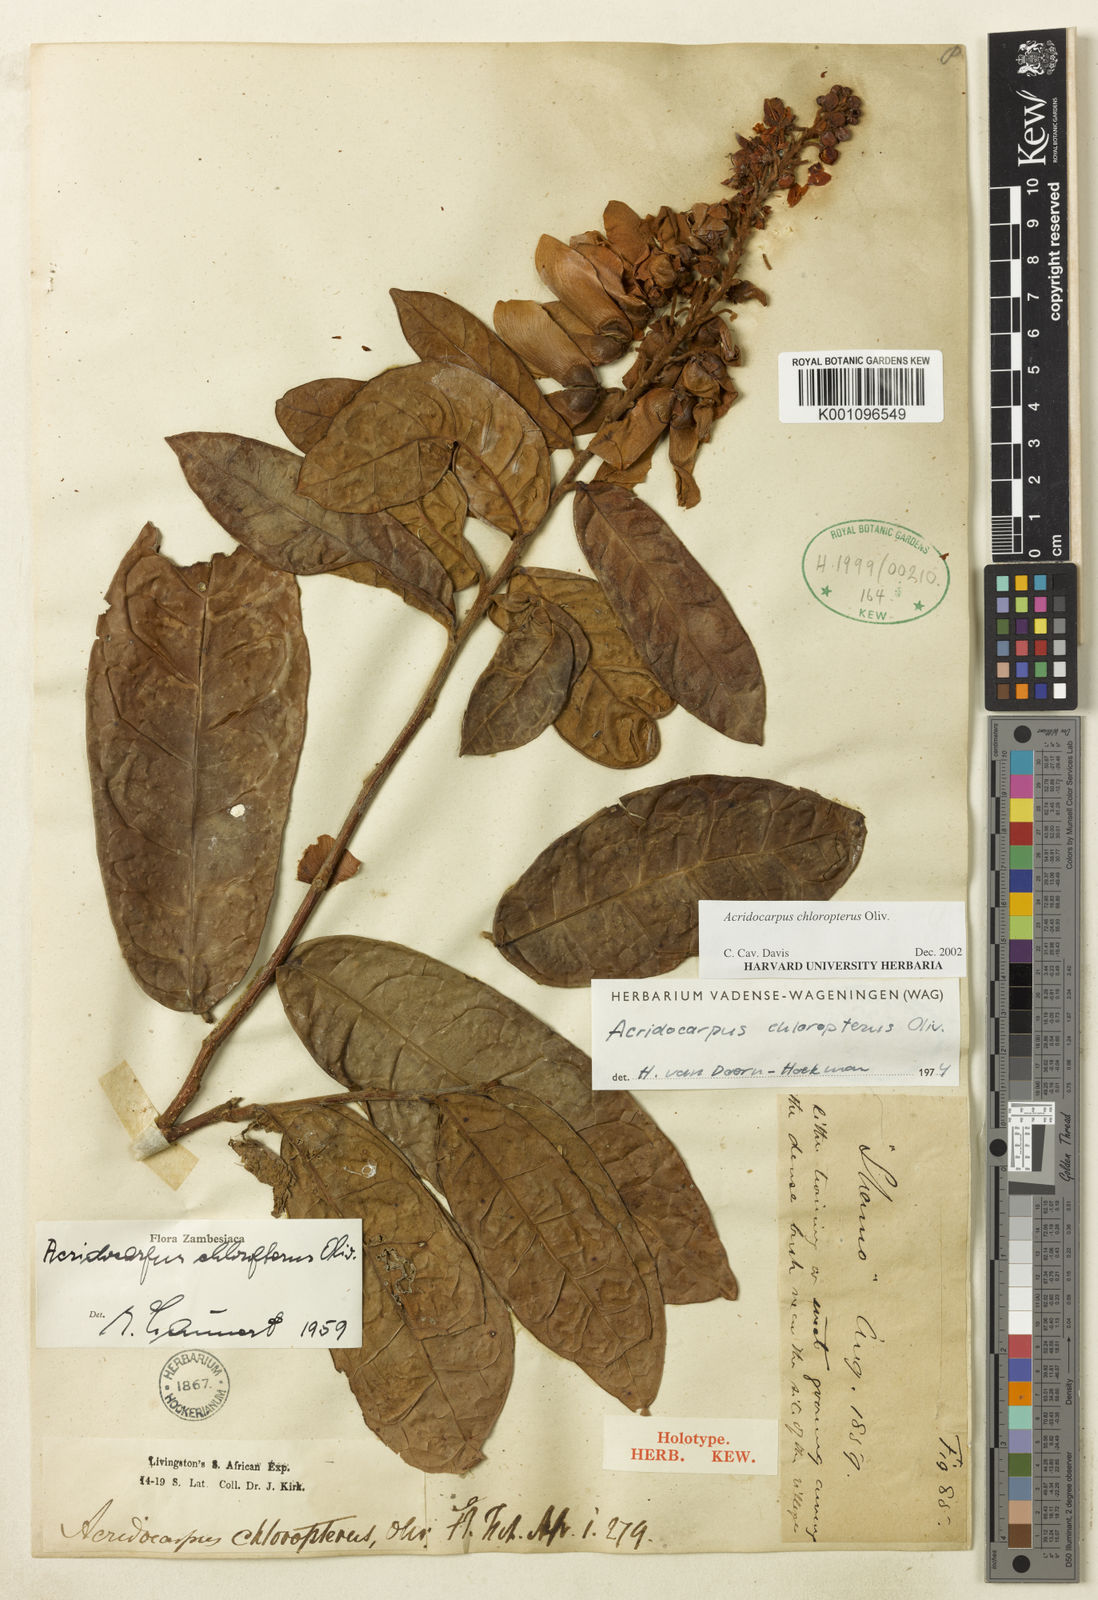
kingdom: Plantae
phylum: Tracheophyta
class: Magnoliopsida
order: Malpighiales
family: Malpighiaceae
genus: Acridocarpus
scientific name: Acridocarpus chloropterus
